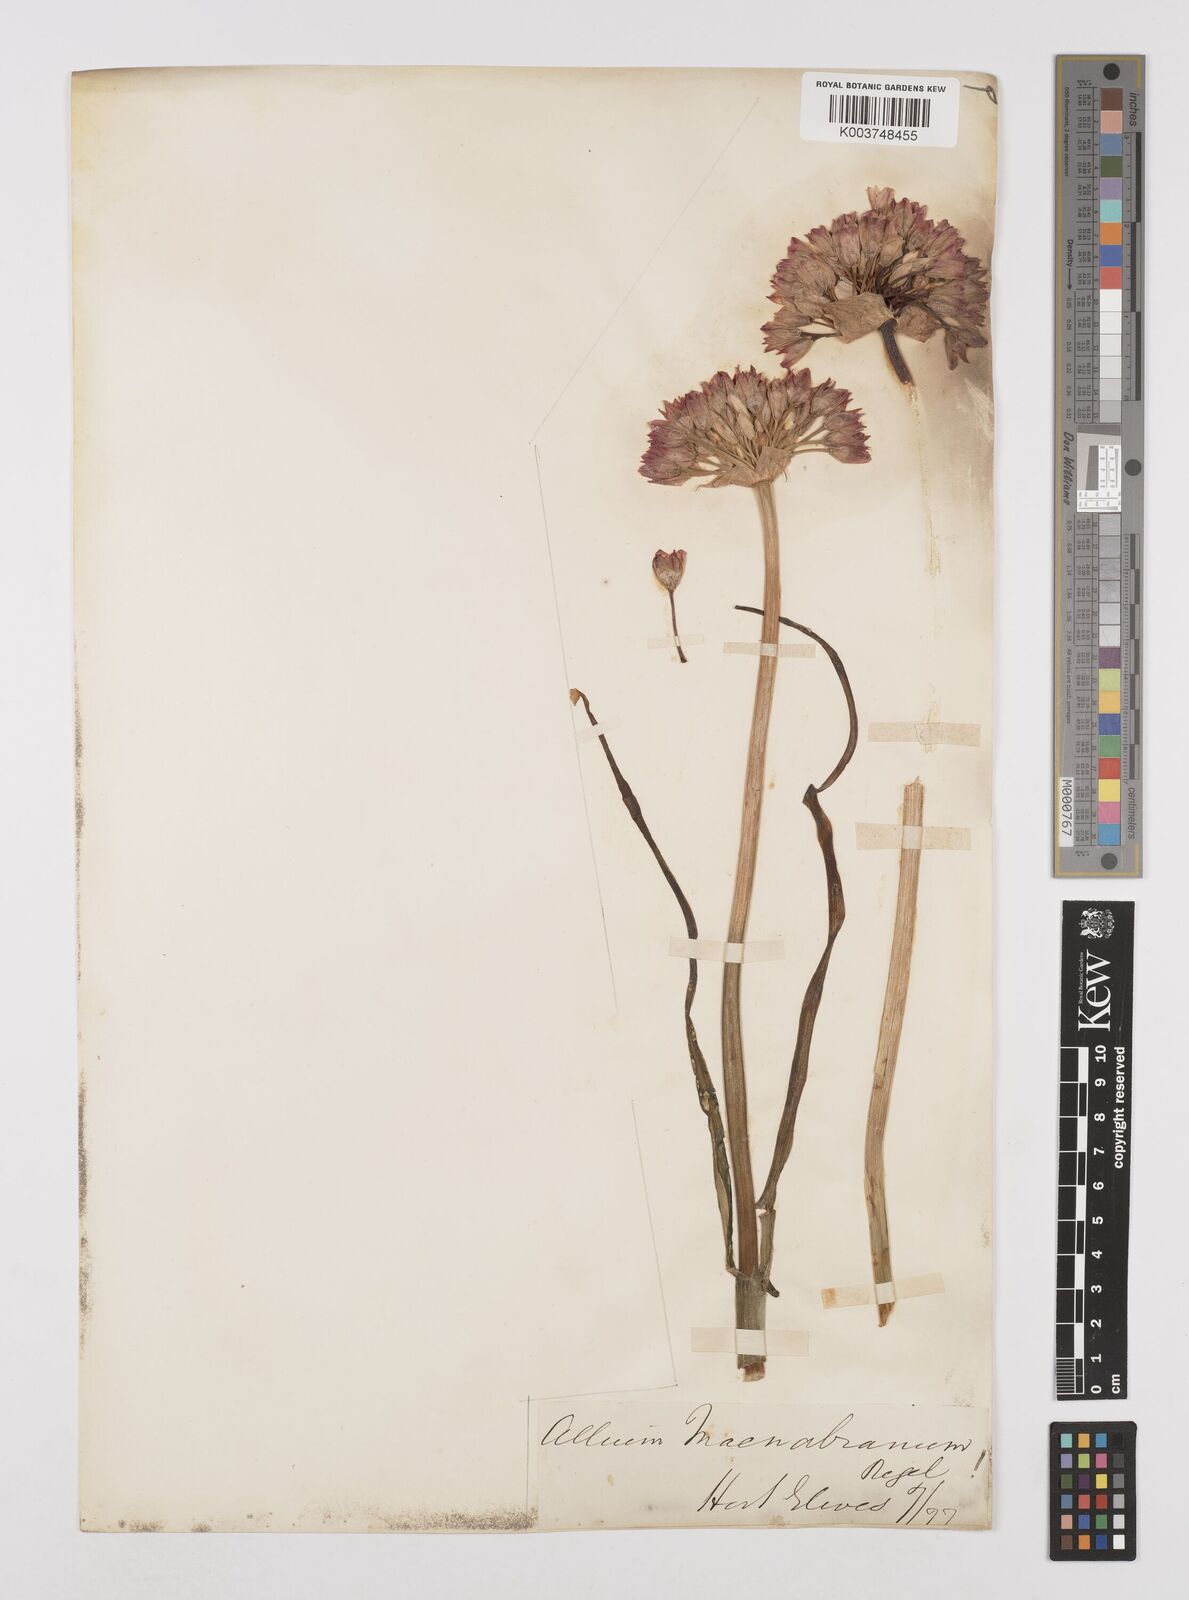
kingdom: Plantae
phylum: Tracheophyta
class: Liliopsida
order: Asparagales
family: Amaryllidaceae
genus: Allium
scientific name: Allium macnabianum
